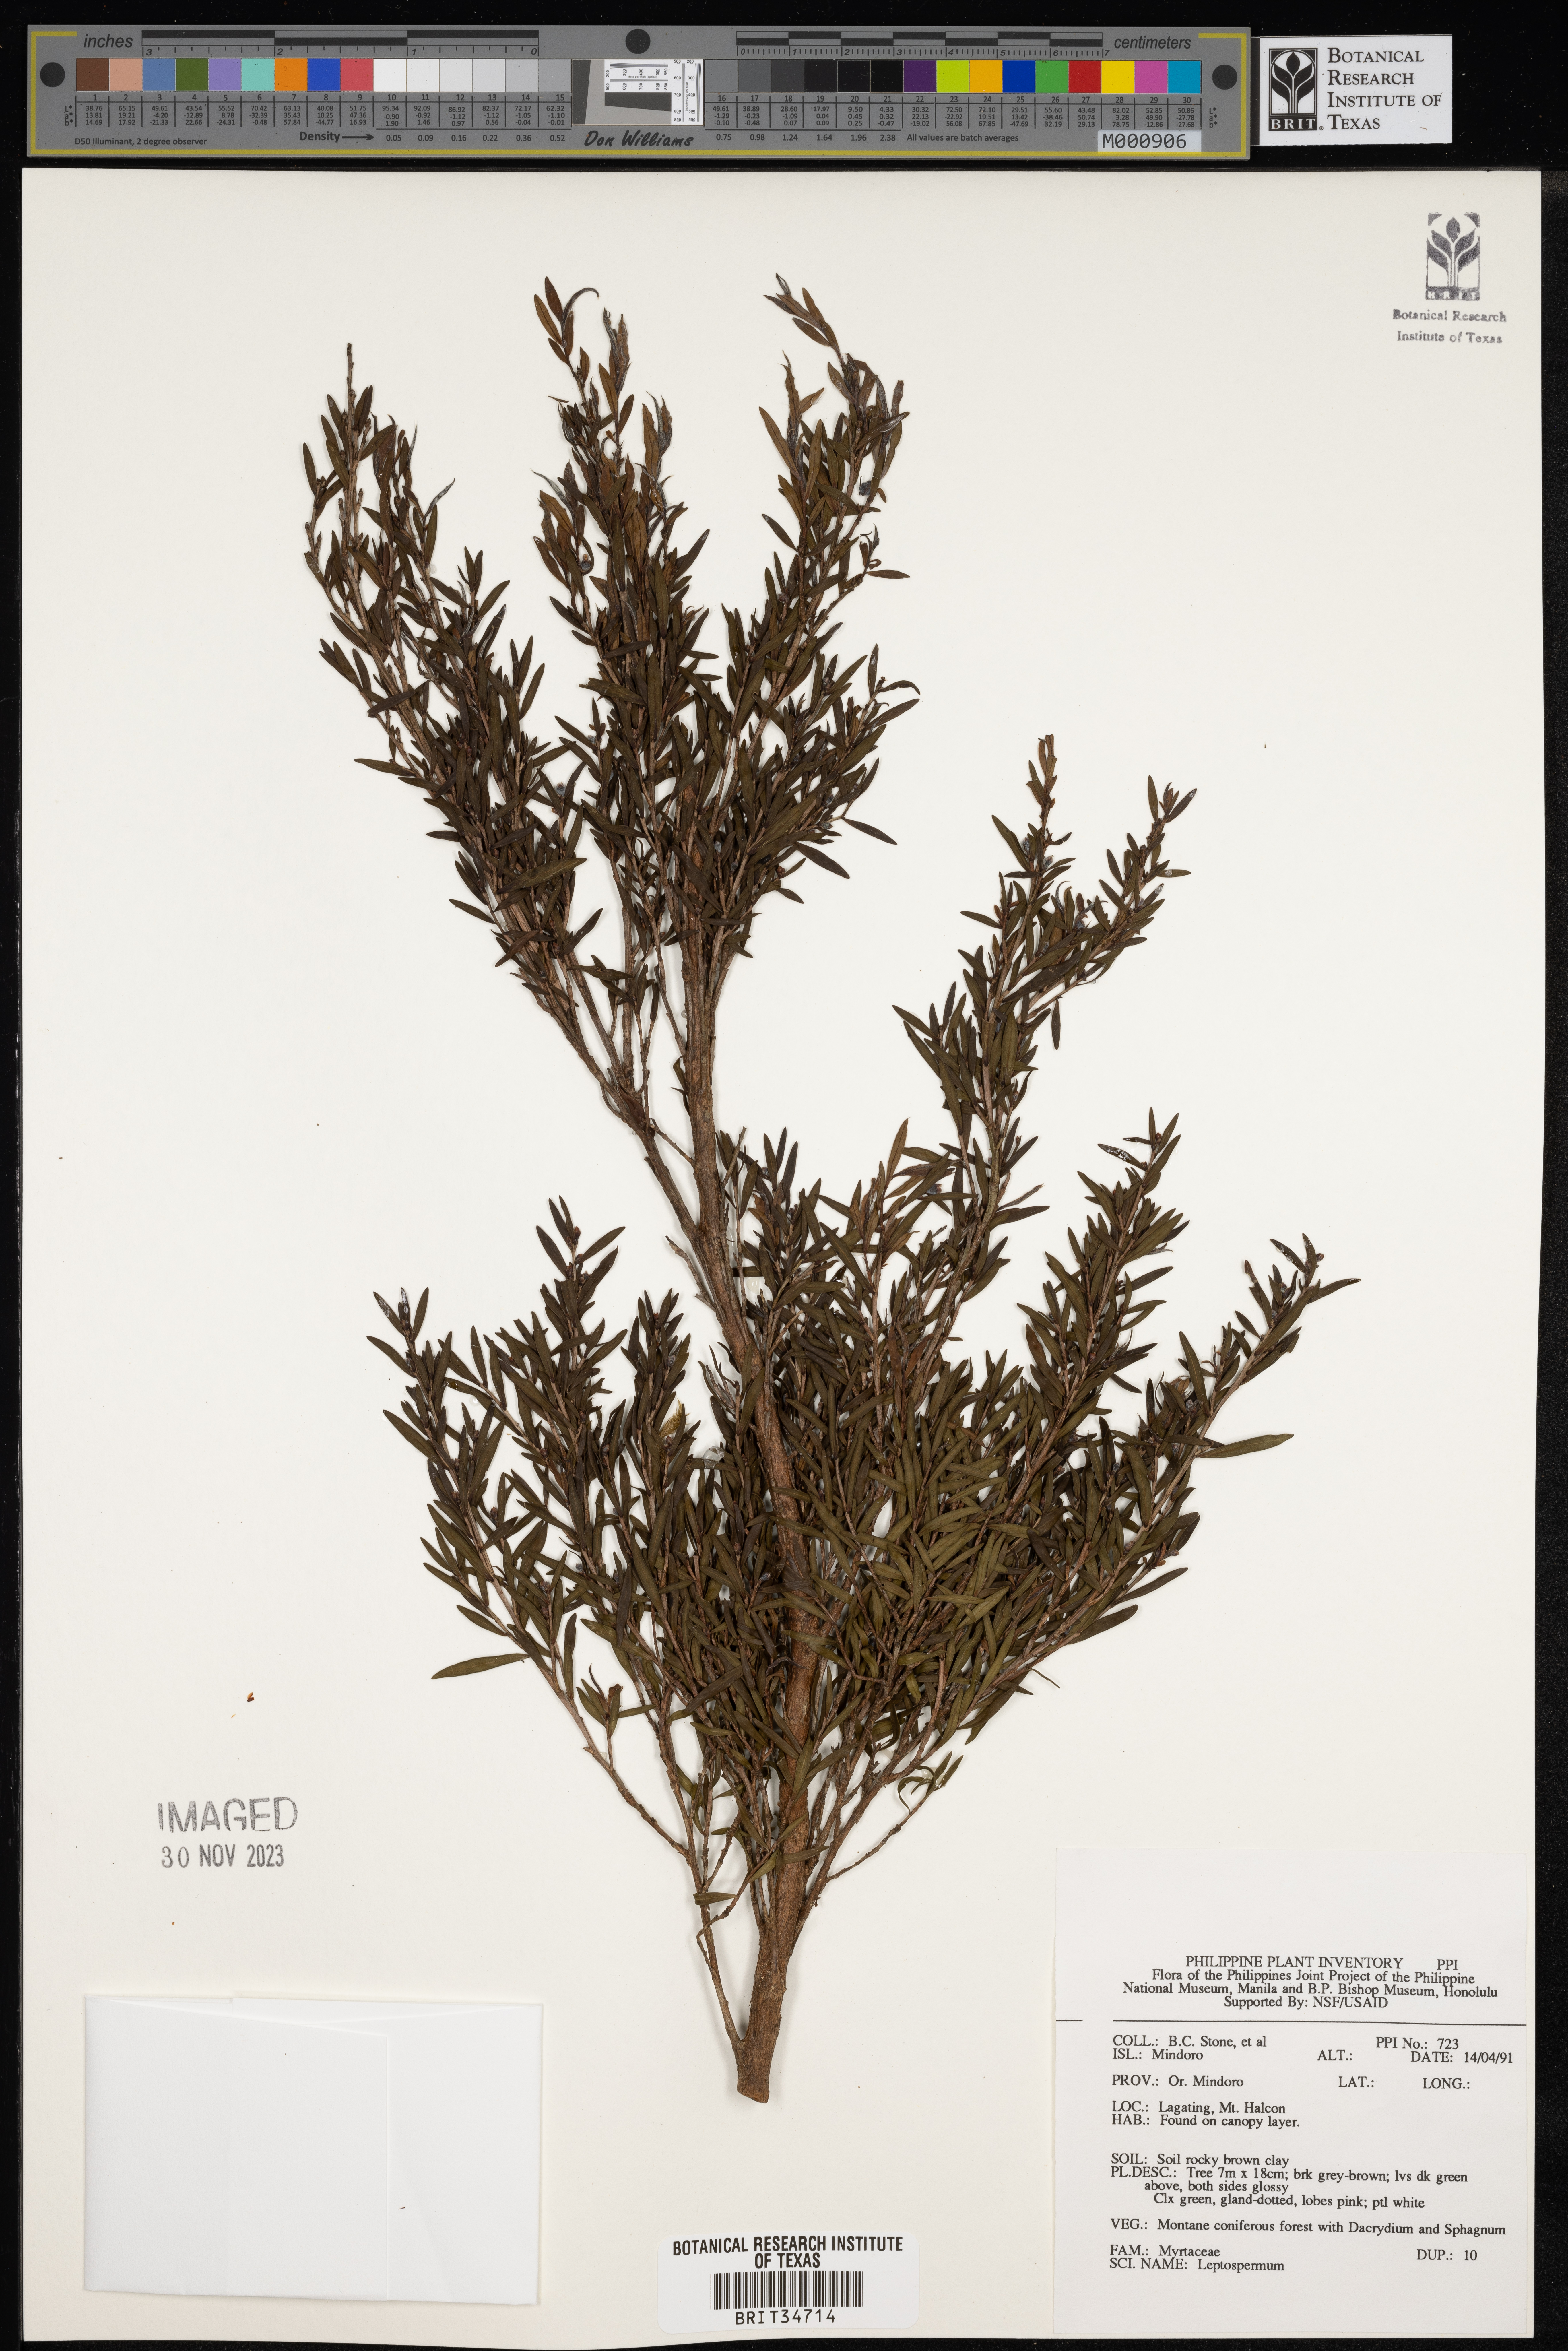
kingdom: Plantae
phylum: Tracheophyta
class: Magnoliopsida
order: Myrtales
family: Myrtaceae
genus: Leptospermum
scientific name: Leptospermum
